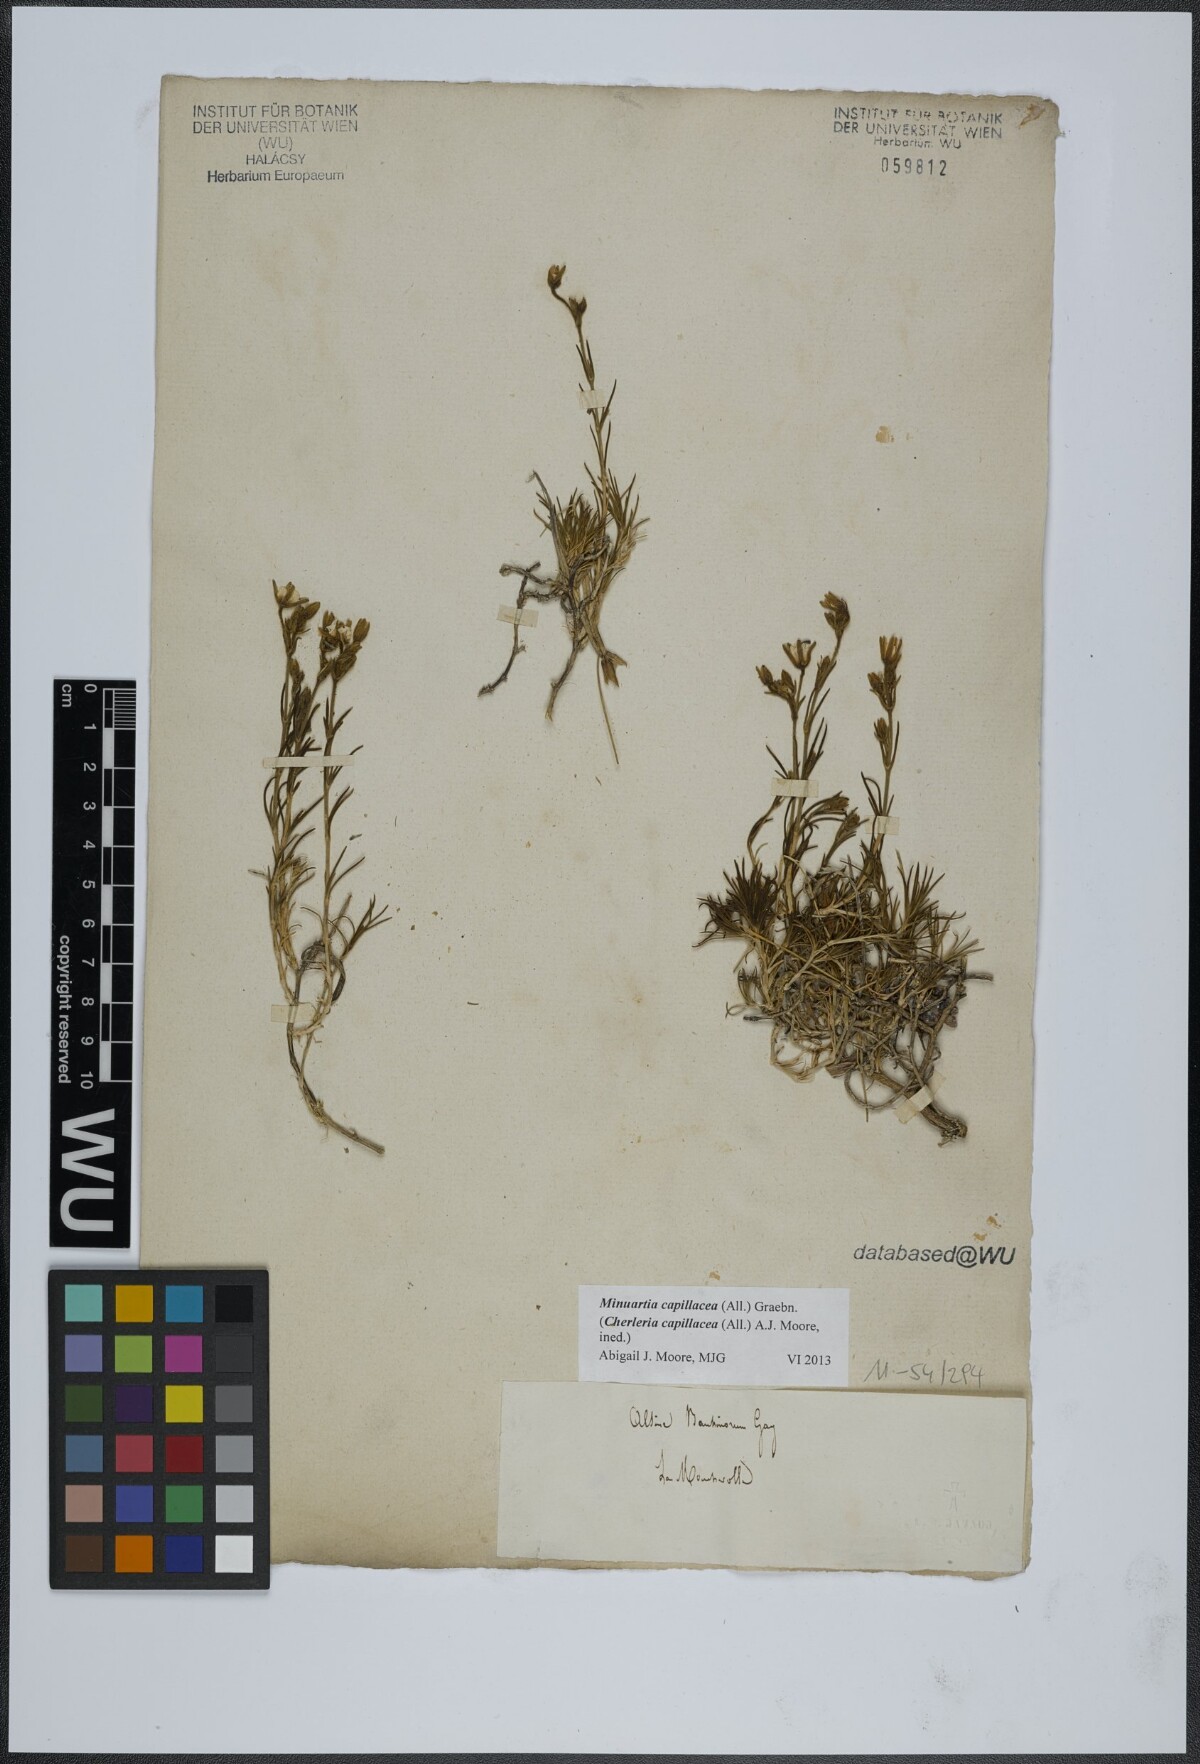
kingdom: Plantae
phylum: Tracheophyta
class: Magnoliopsida
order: Caryophyllales
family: Caryophyllaceae
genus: Cherleria
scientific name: Cherleria capillacea
